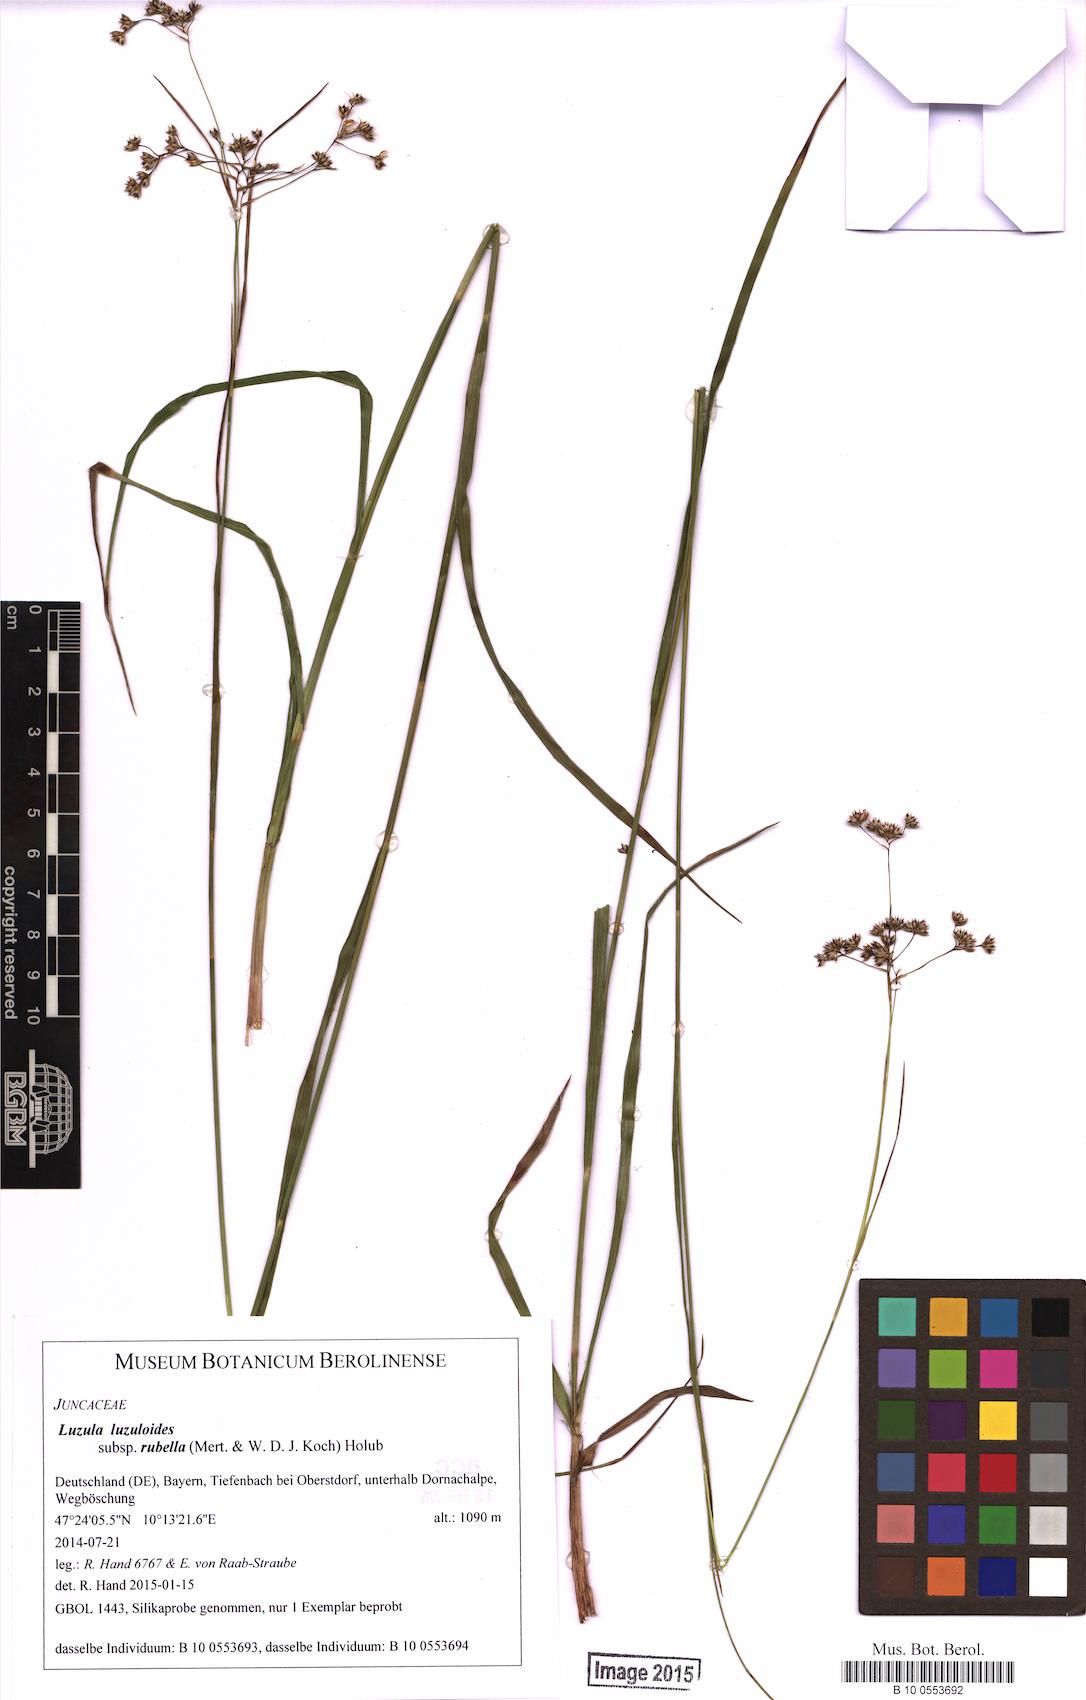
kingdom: Plantae
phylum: Tracheophyta
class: Liliopsida
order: Poales
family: Juncaceae
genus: Luzula
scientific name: Luzula luzuloides
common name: White wood-rush
